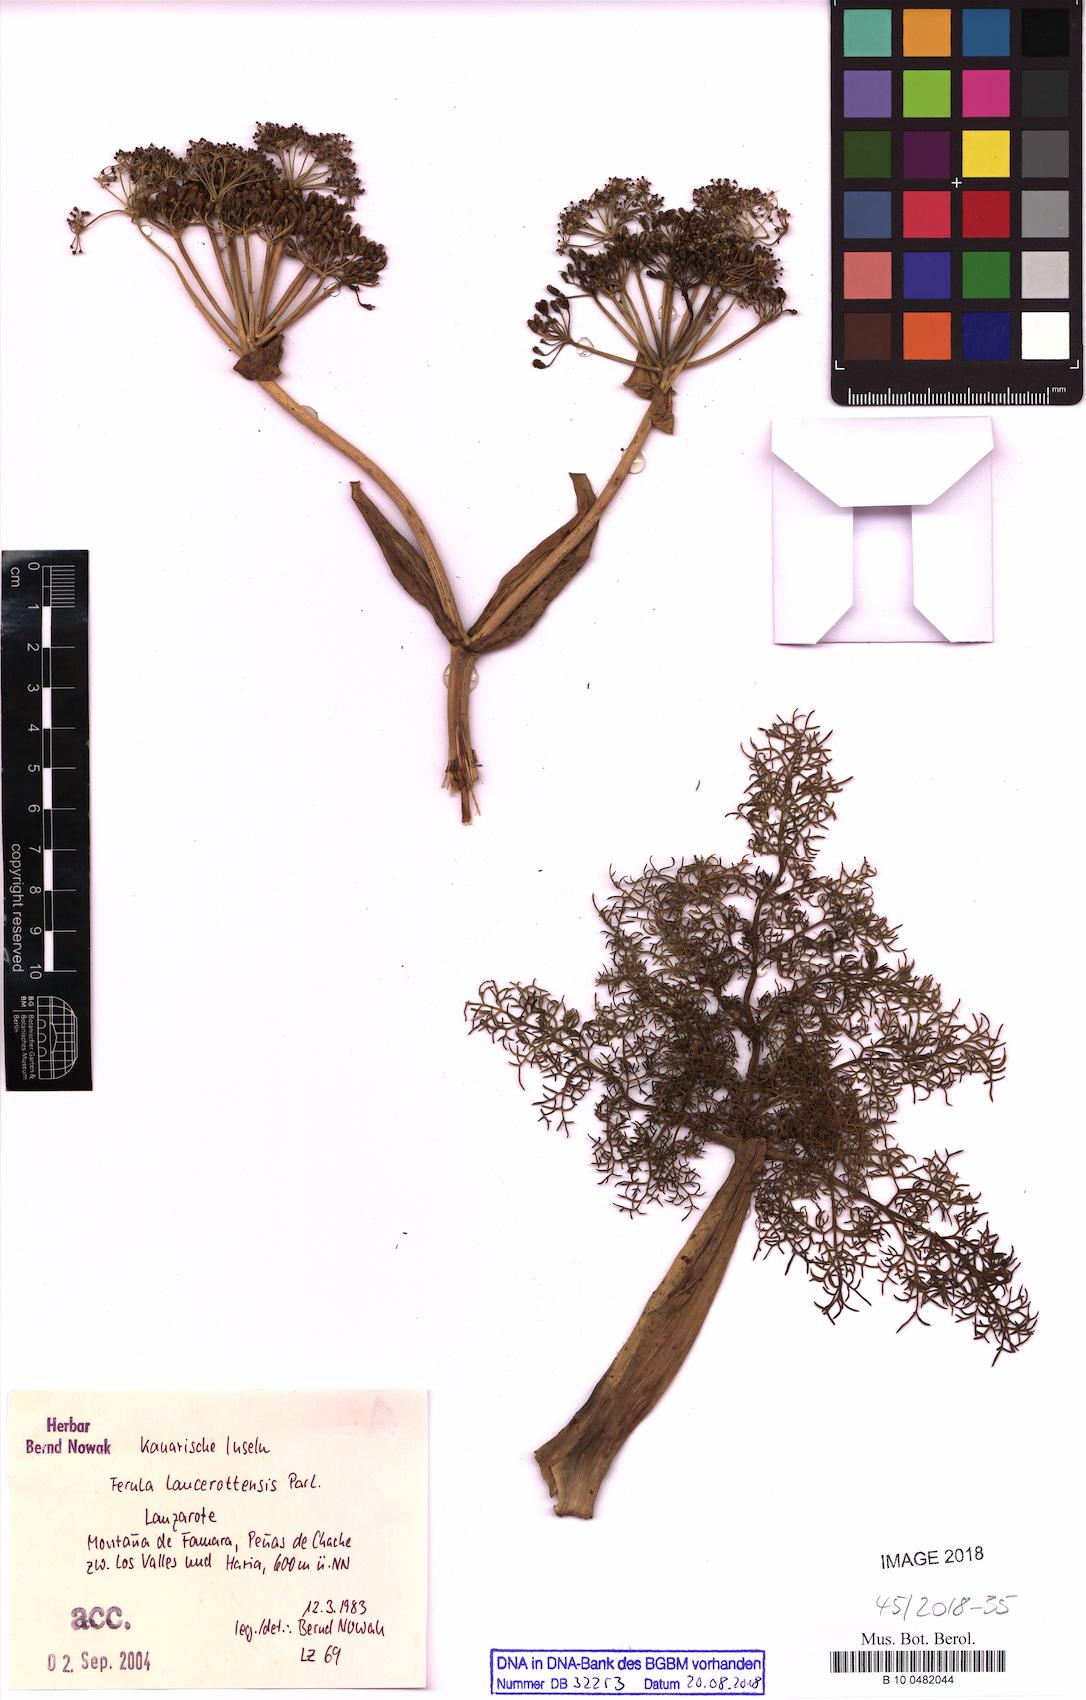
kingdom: Plantae
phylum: Tracheophyta
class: Magnoliopsida
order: Apiales
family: Apiaceae
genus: Ferula
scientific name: Ferula lancerotensis
